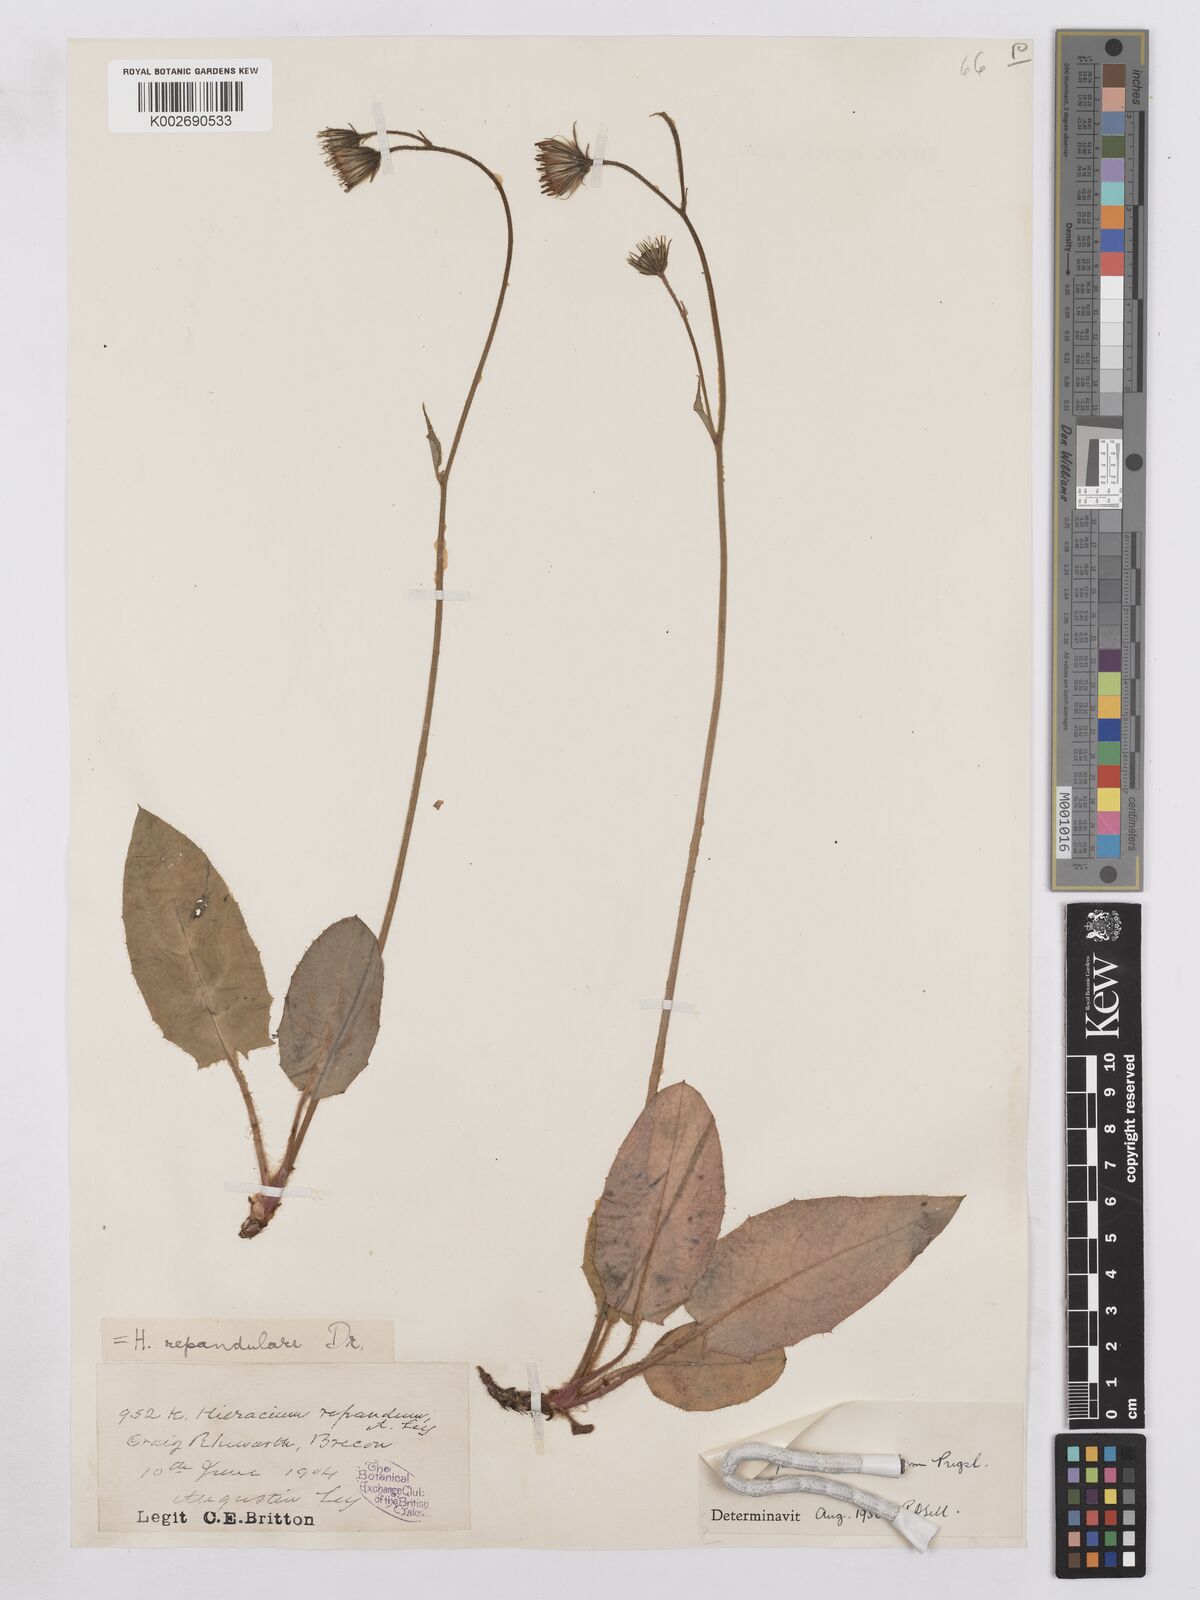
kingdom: Plantae
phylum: Tracheophyta
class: Magnoliopsida
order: Asterales
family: Asteraceae
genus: Hieracium
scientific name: Hieracium repandulare
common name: Repand-leaved hawkweed
